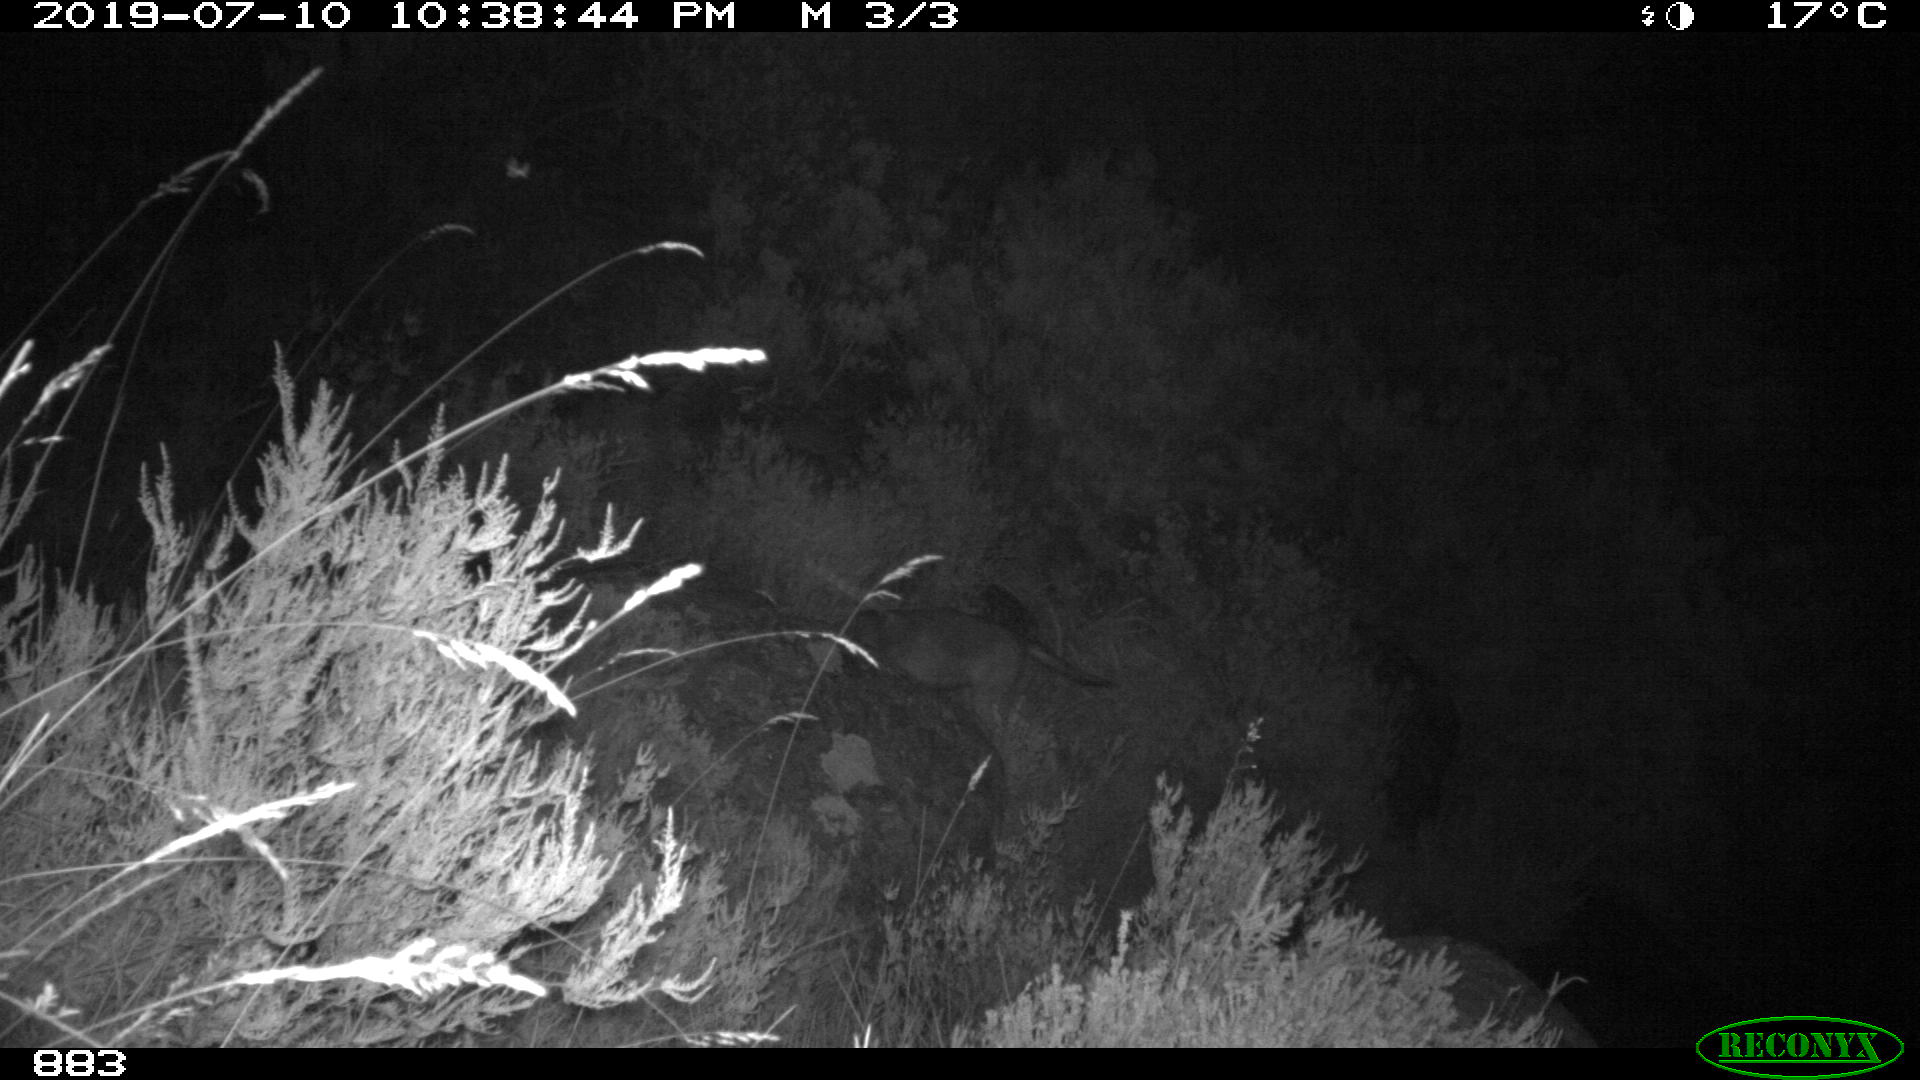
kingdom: Animalia
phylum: Chordata
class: Mammalia
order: Carnivora
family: Canidae
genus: Canis
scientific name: Canis lupus
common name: Gray wolf
